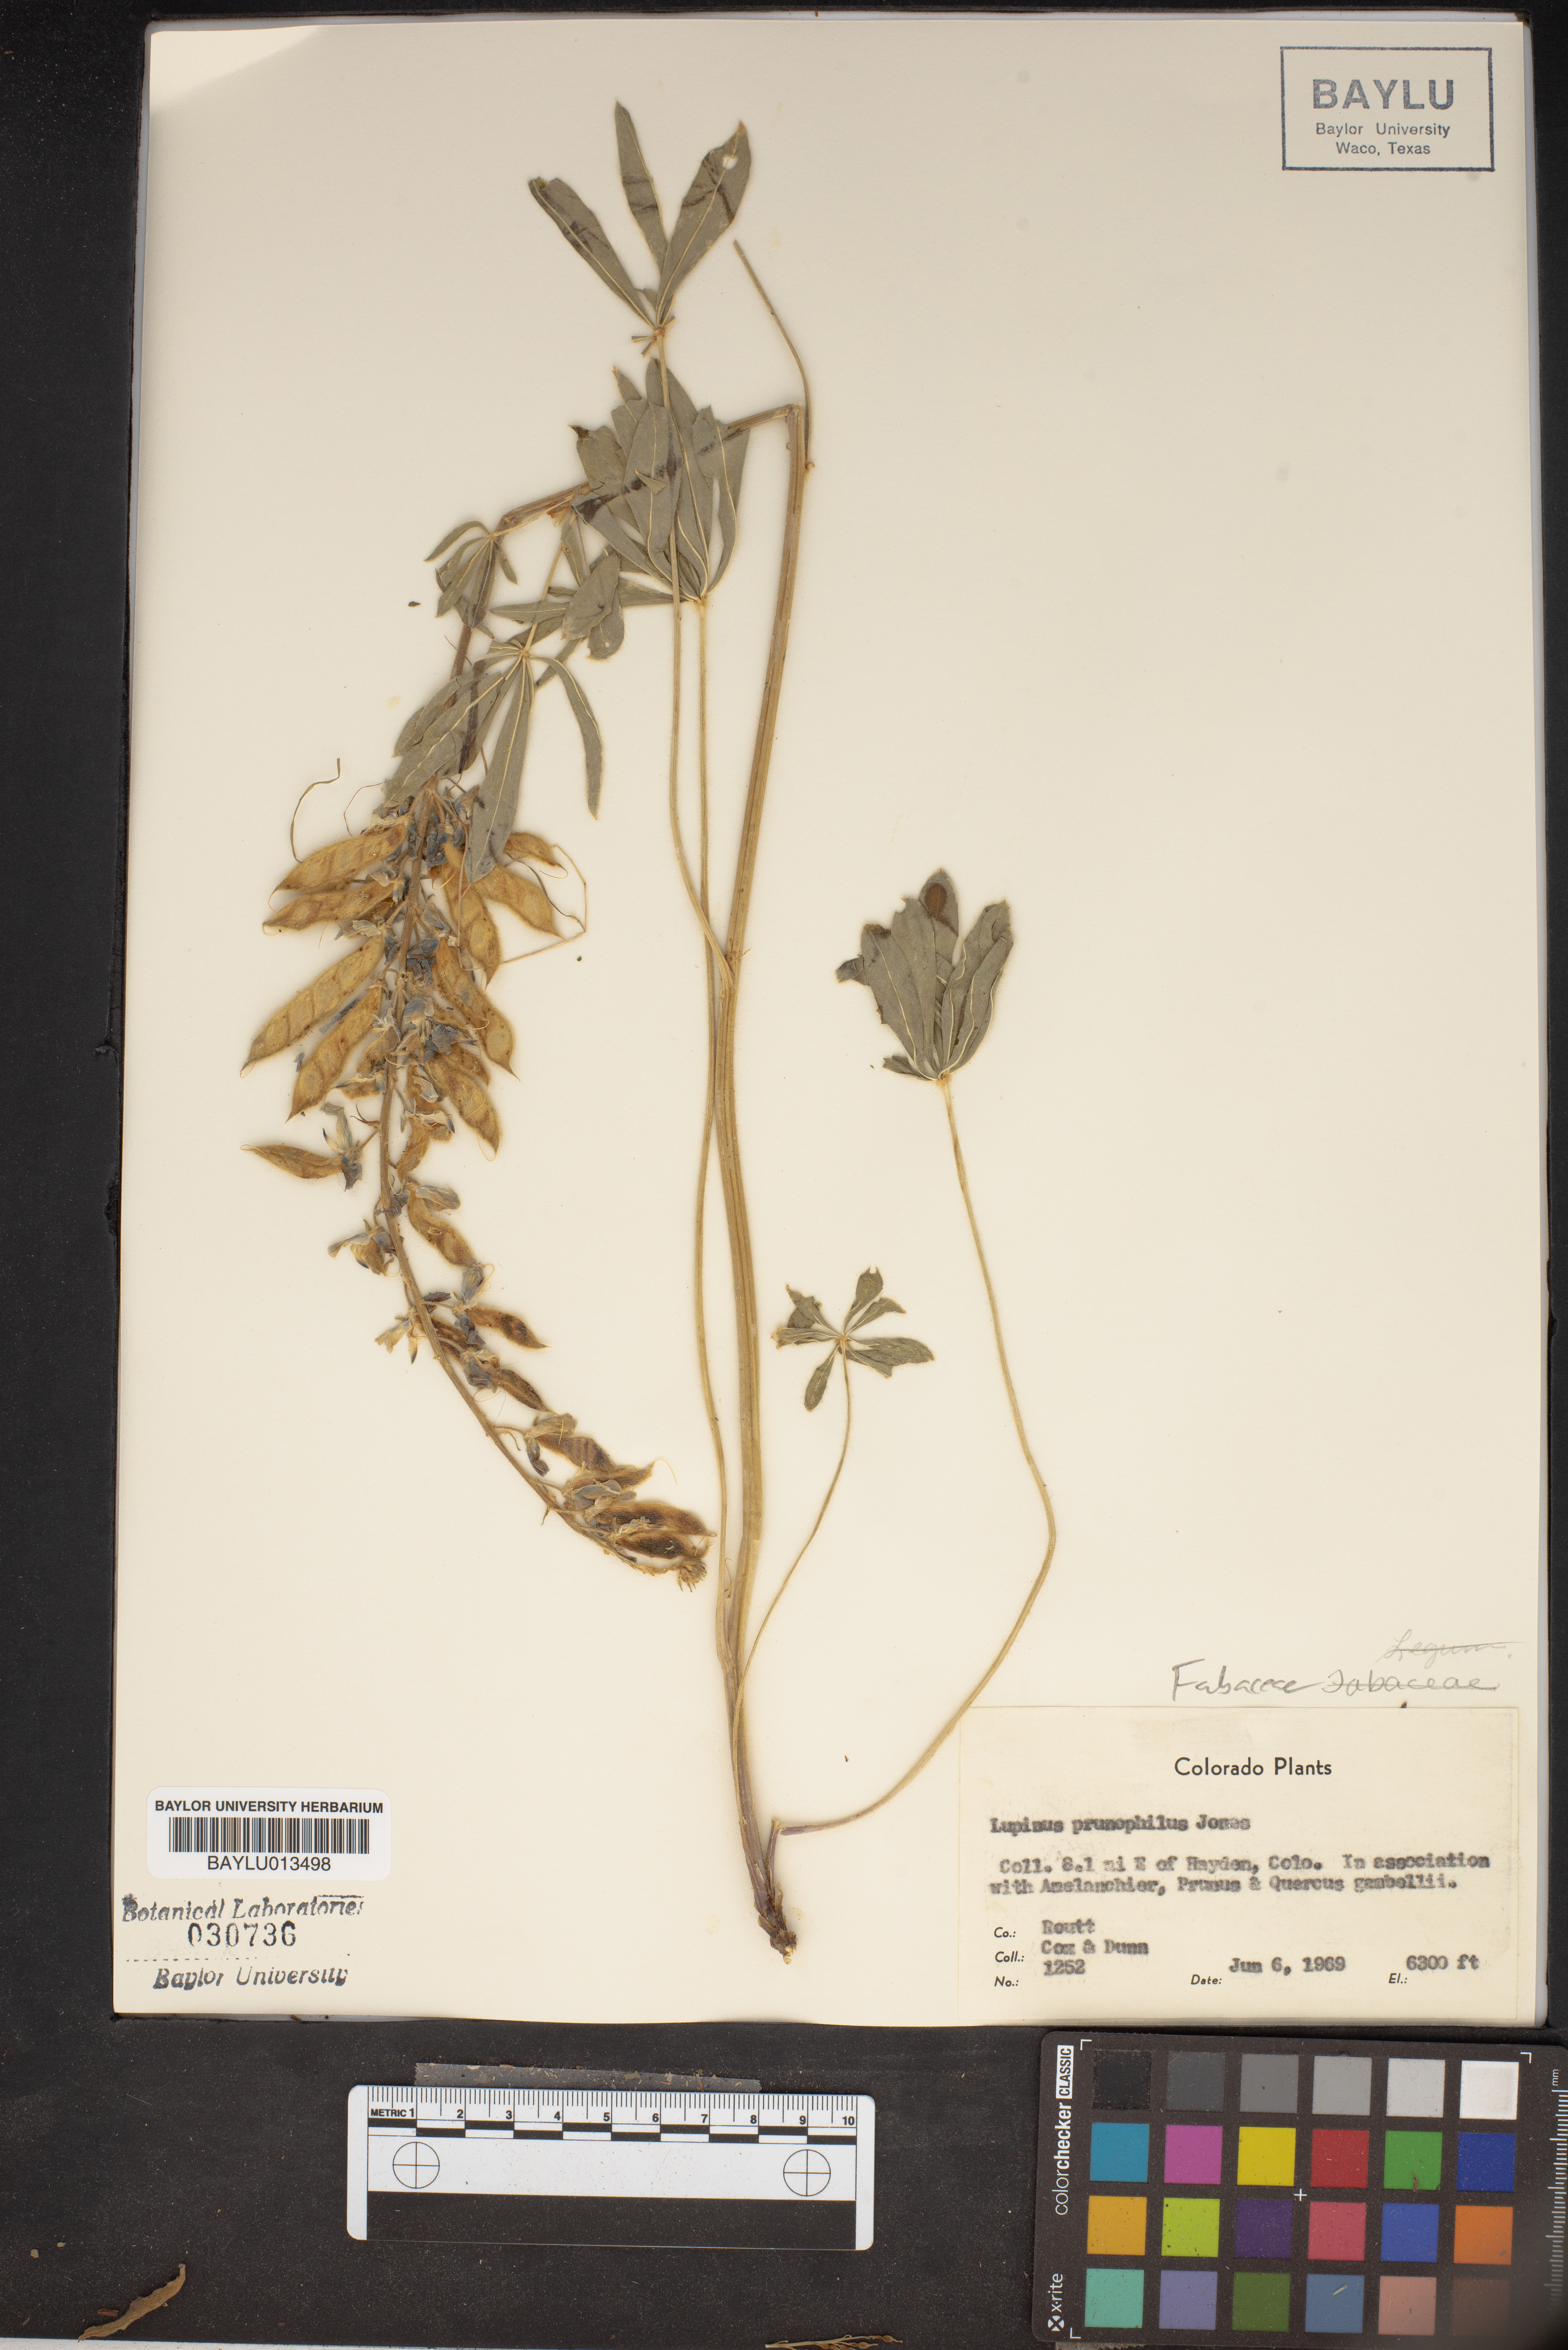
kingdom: Plantae
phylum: Tracheophyta
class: Magnoliopsida
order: Fabales
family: Fabaceae
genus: Lupinus
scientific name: Lupinus prunophilus
